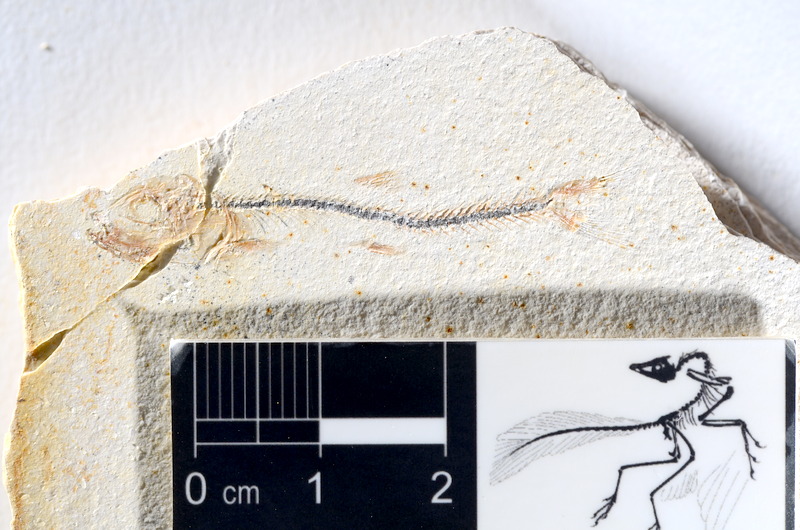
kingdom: Animalia
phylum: Chordata
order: Salmoniformes
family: Orthogonikleithridae
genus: Orthogonikleithrus
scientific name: Orthogonikleithrus hoelli
